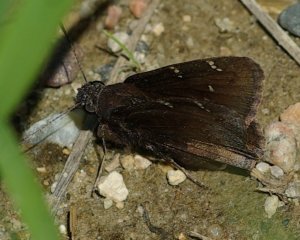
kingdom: Animalia
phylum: Arthropoda
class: Insecta
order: Lepidoptera
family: Hesperiidae
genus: Autochton
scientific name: Autochton
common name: Northern Cloudywing
